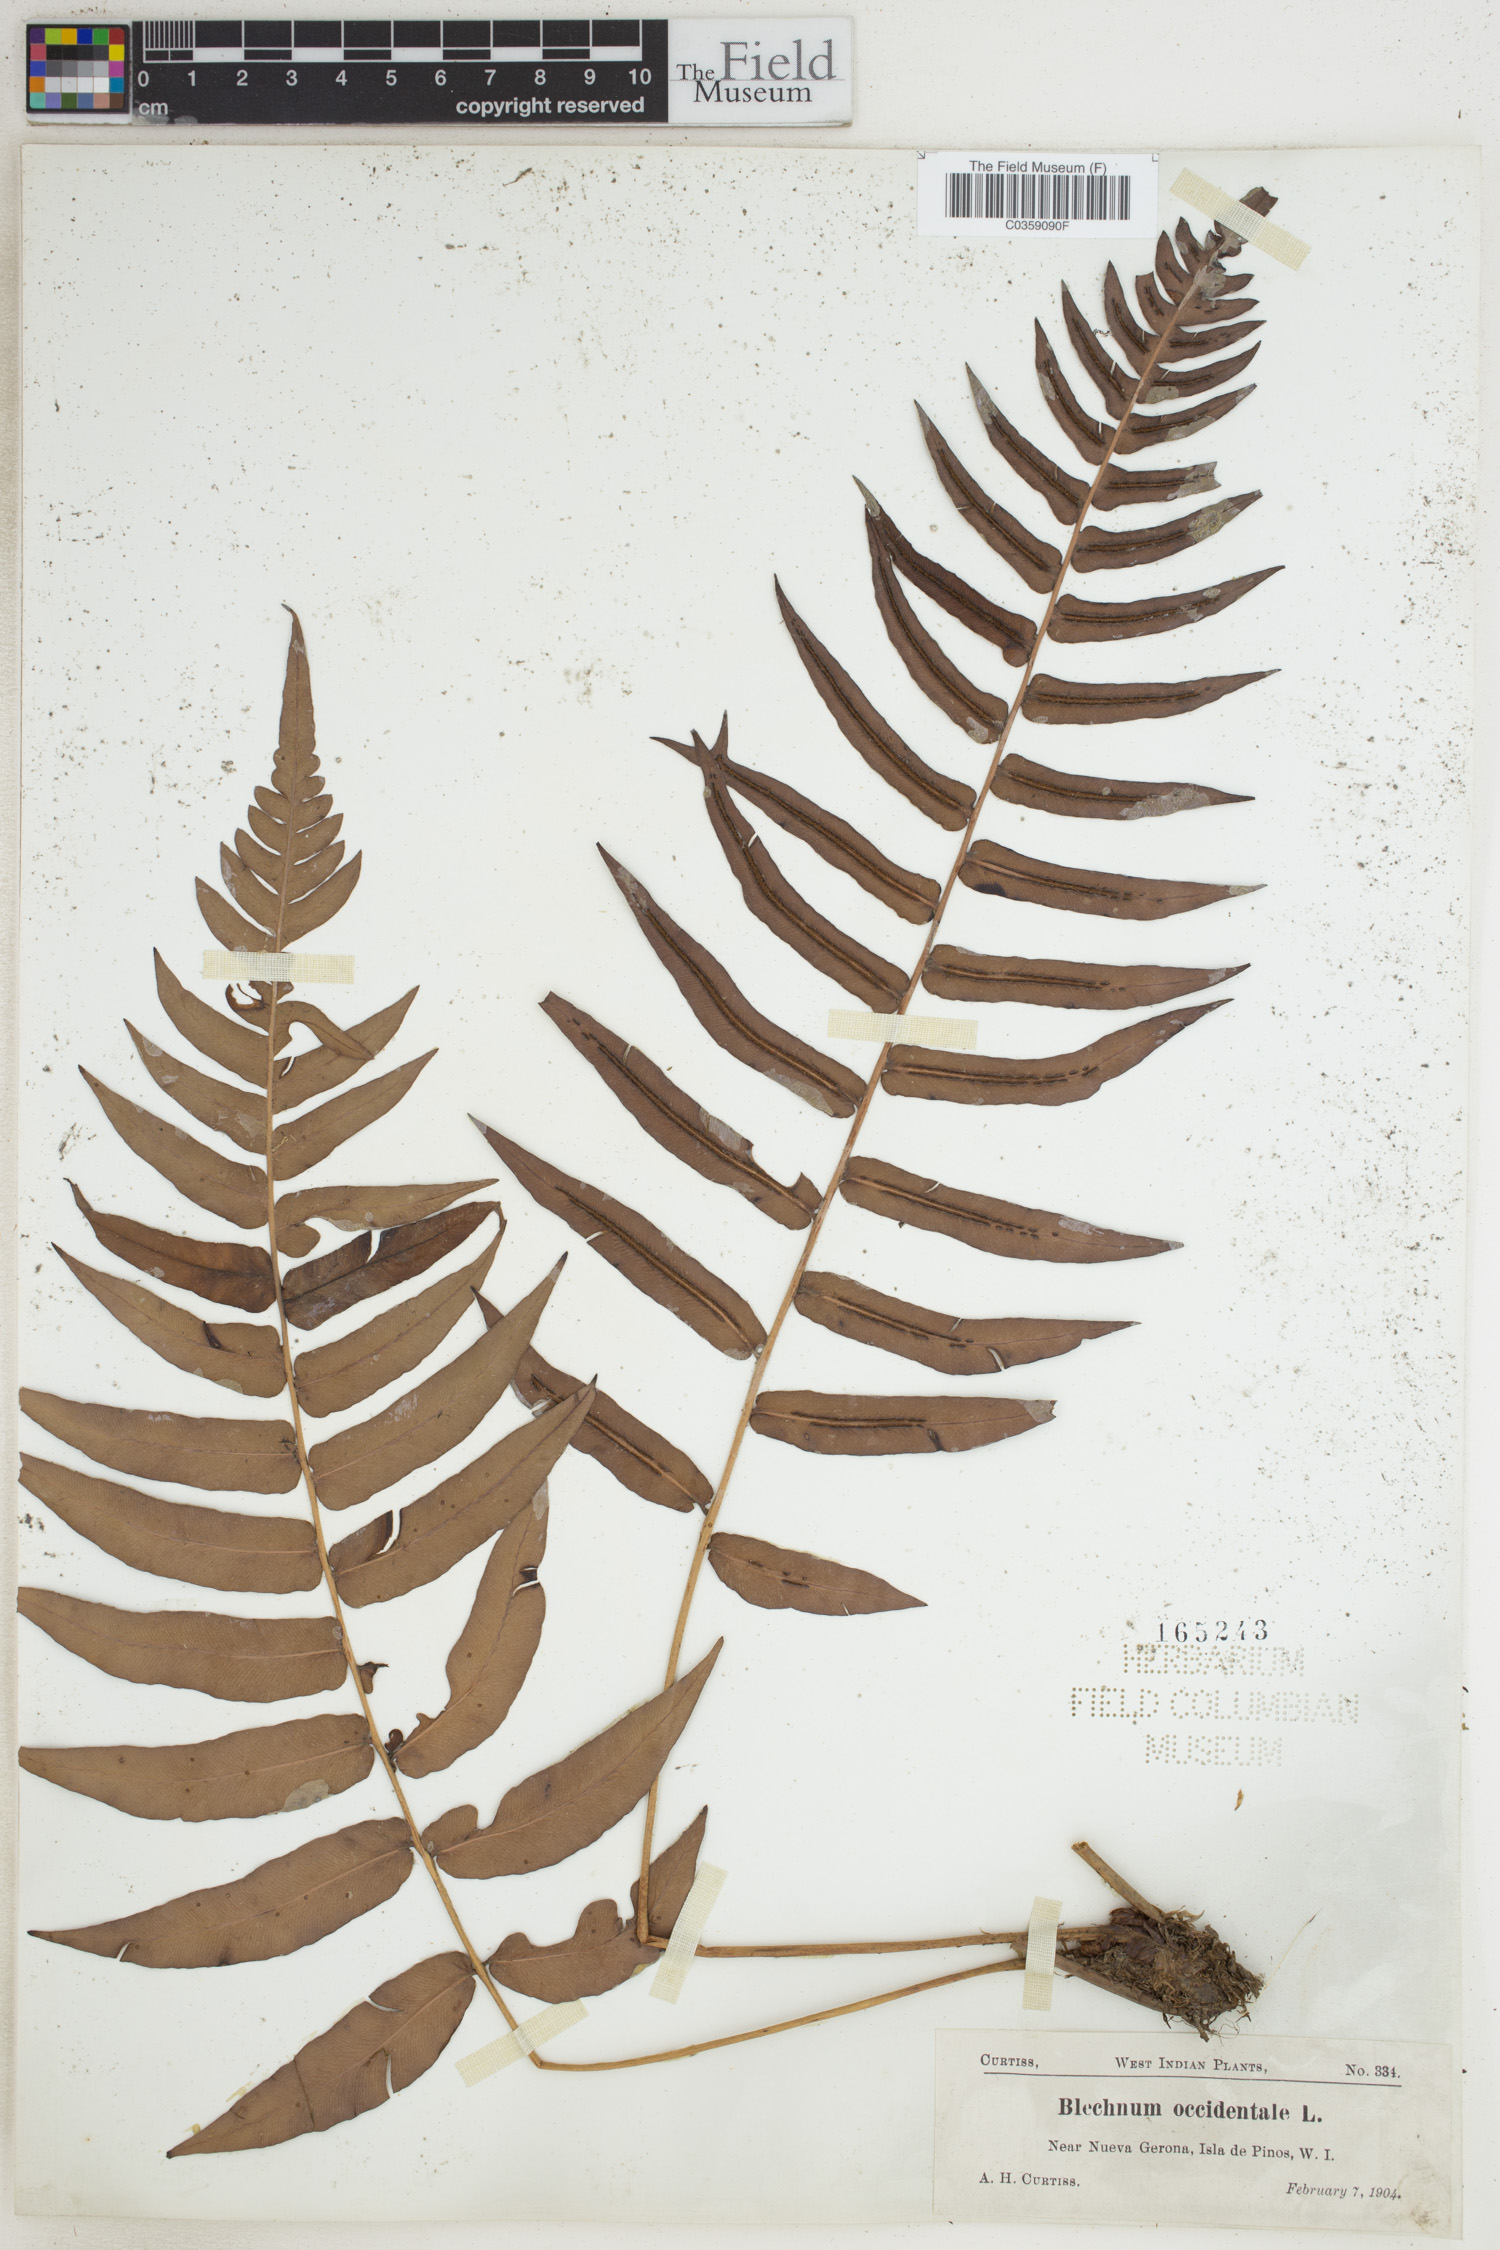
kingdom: Plantae
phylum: Tracheophyta
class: Polypodiopsida
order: Polypodiales
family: Blechnaceae
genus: Blechnum
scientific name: Blechnum occidentale
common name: Hammock fern
